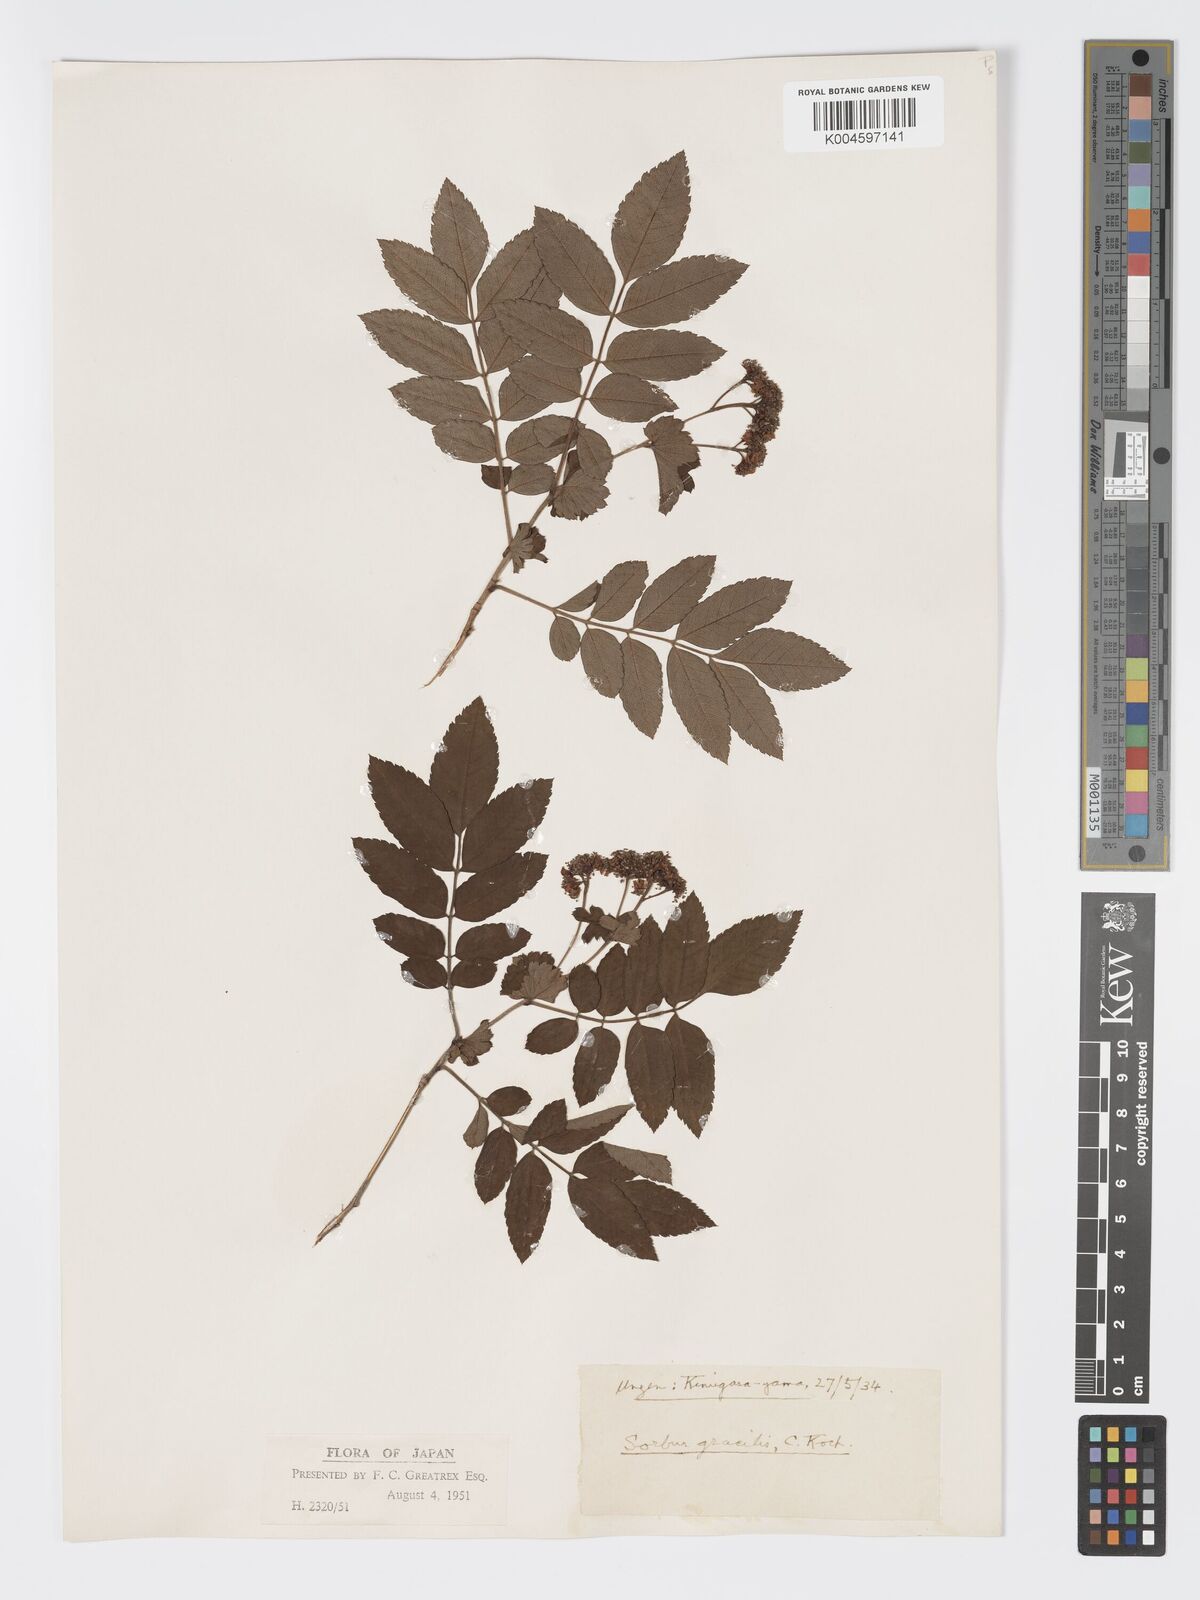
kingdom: Plantae
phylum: Tracheophyta
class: Magnoliopsida
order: Rosales
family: Rosaceae
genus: Sorbus
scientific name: Sorbus gracilis
